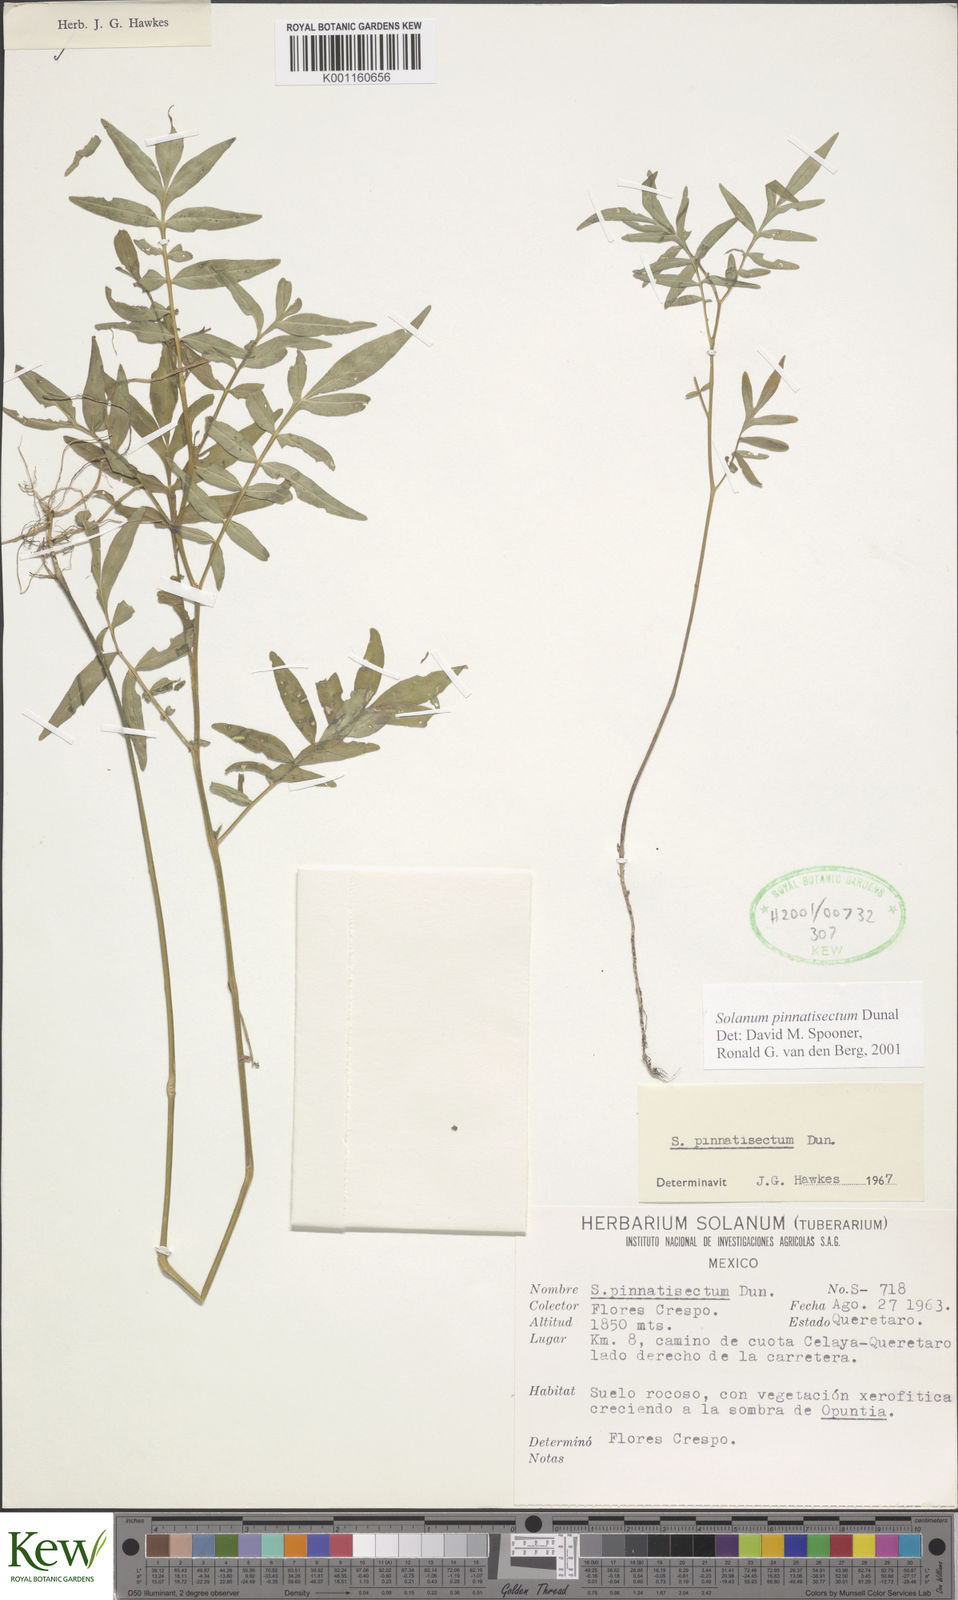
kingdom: Plantae
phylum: Tracheophyta
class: Magnoliopsida
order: Solanales
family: Solanaceae
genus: Solanum
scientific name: Solanum pinnatisectum
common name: Tansyleaf nightshade
